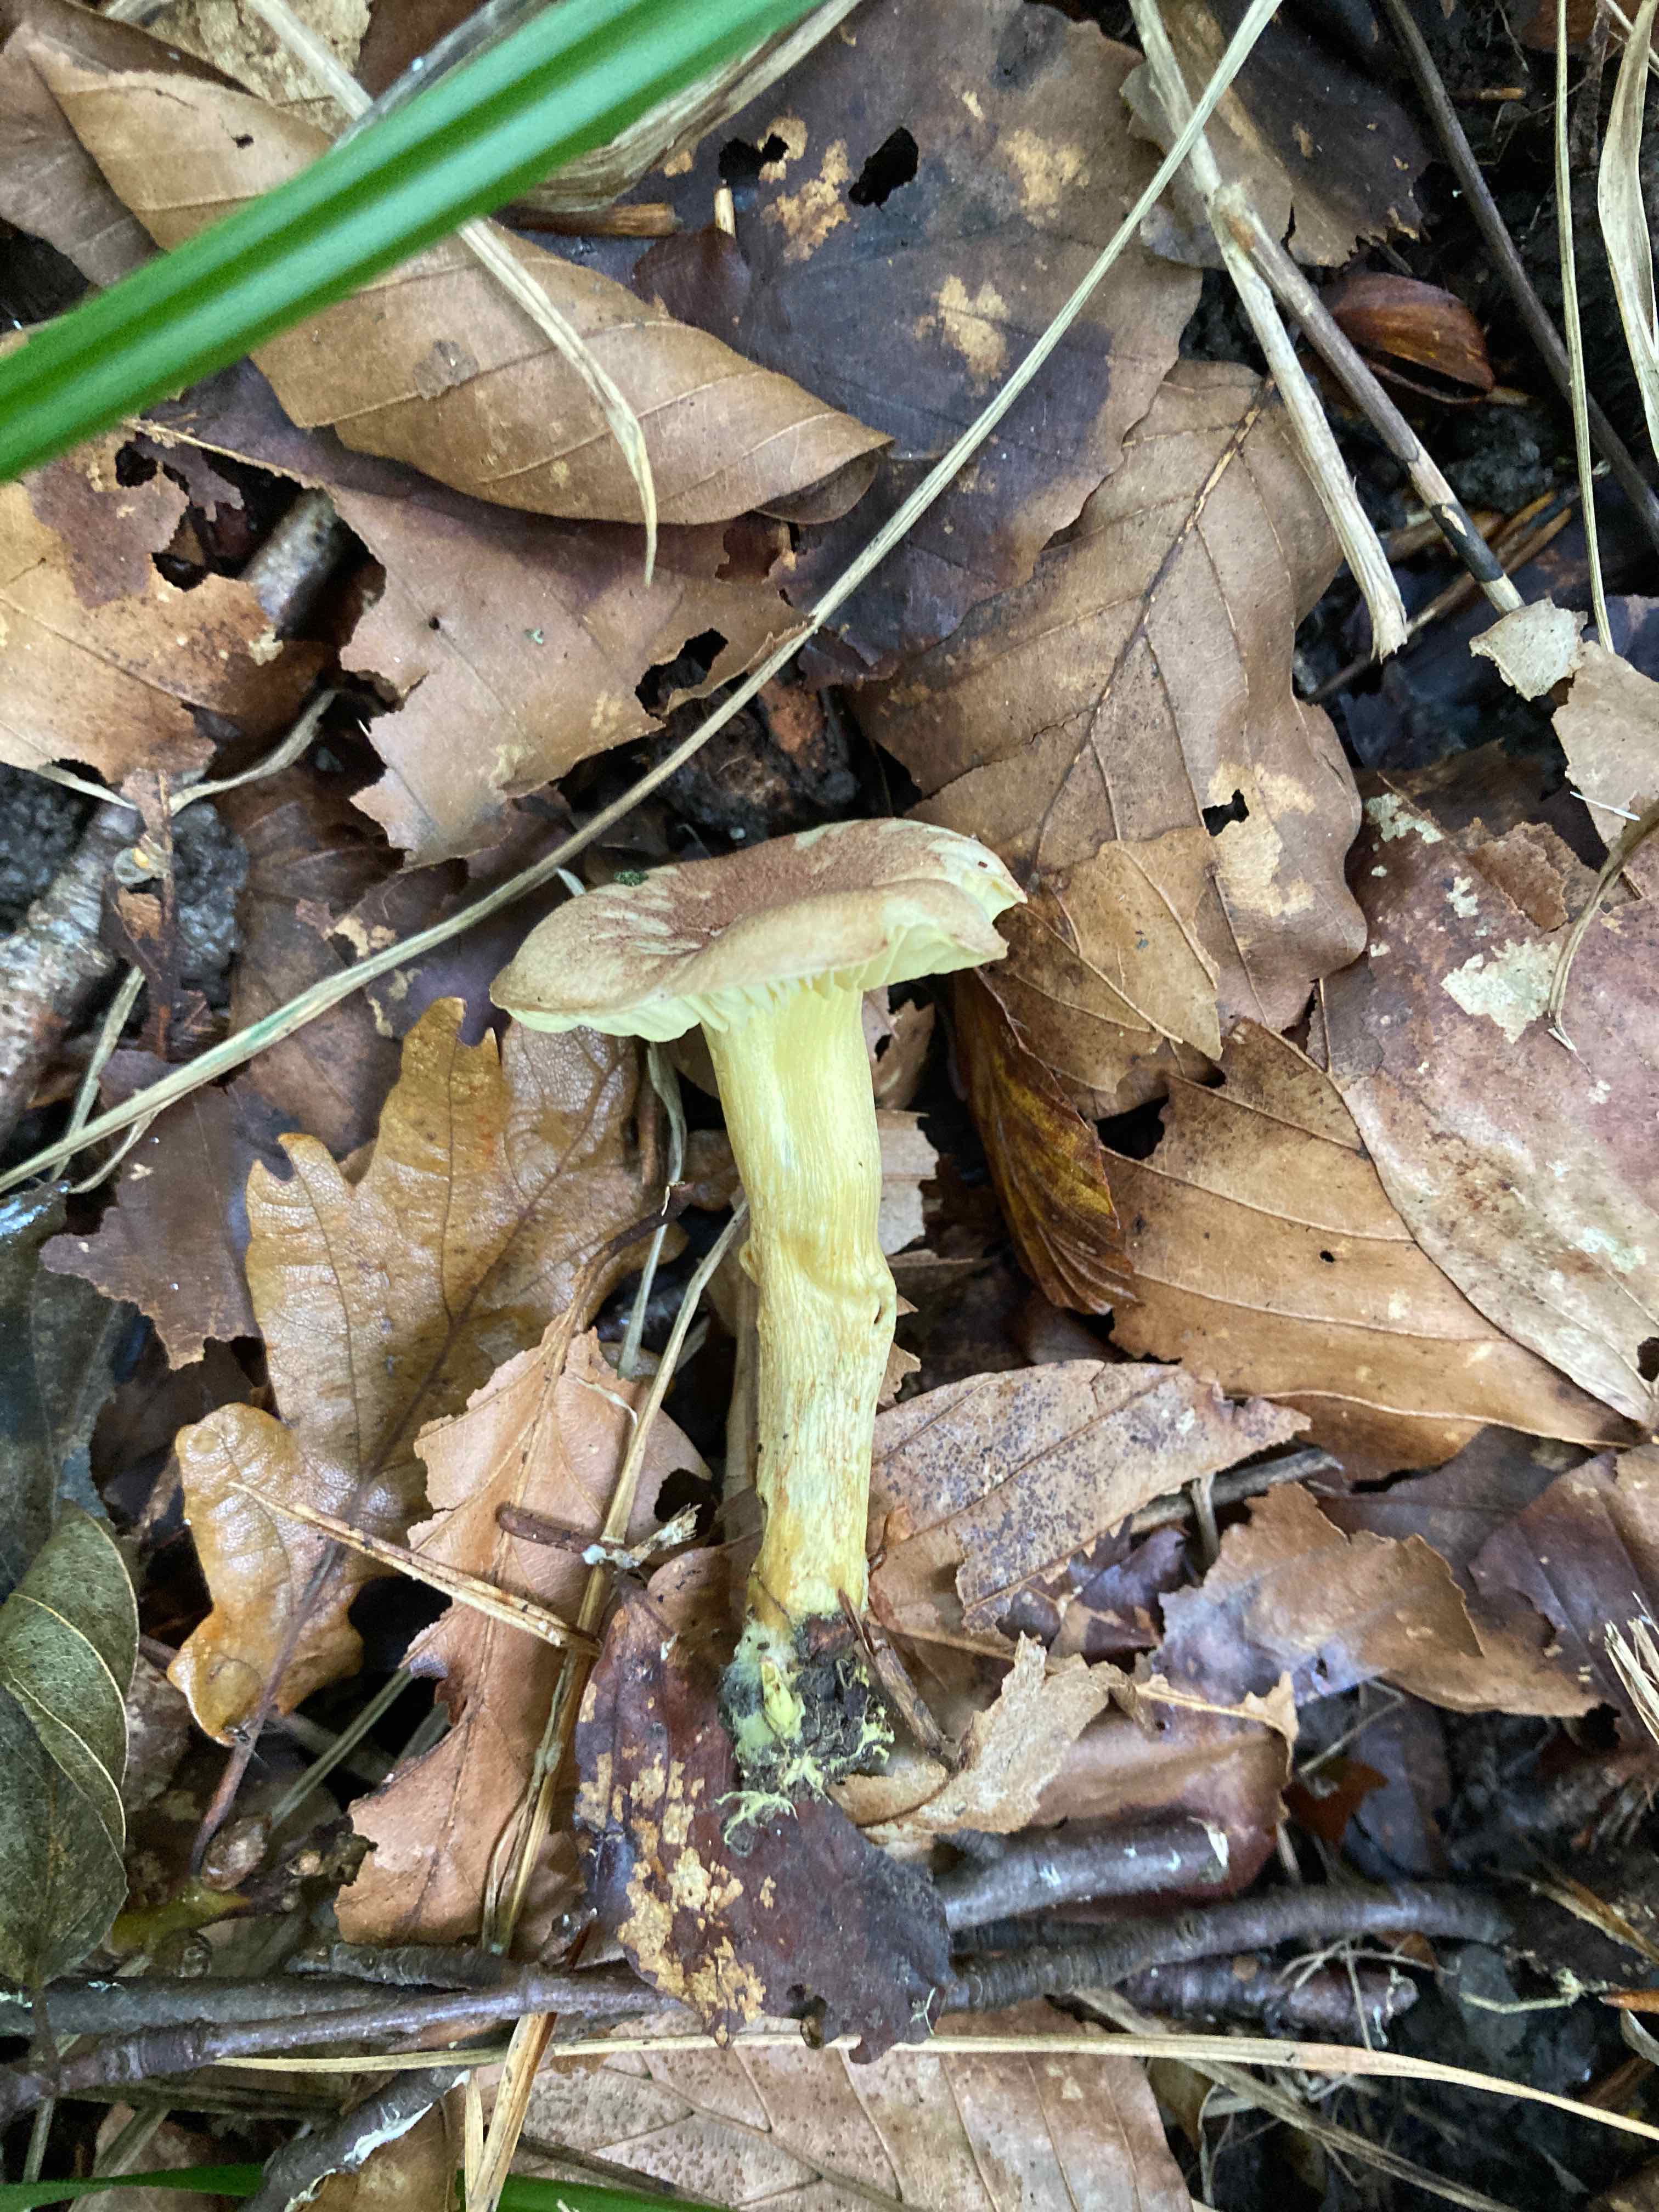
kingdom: Fungi
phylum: Basidiomycota
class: Agaricomycetes
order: Agaricales
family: Tricholomataceae
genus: Tricholoma
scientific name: Tricholoma sulphureum
